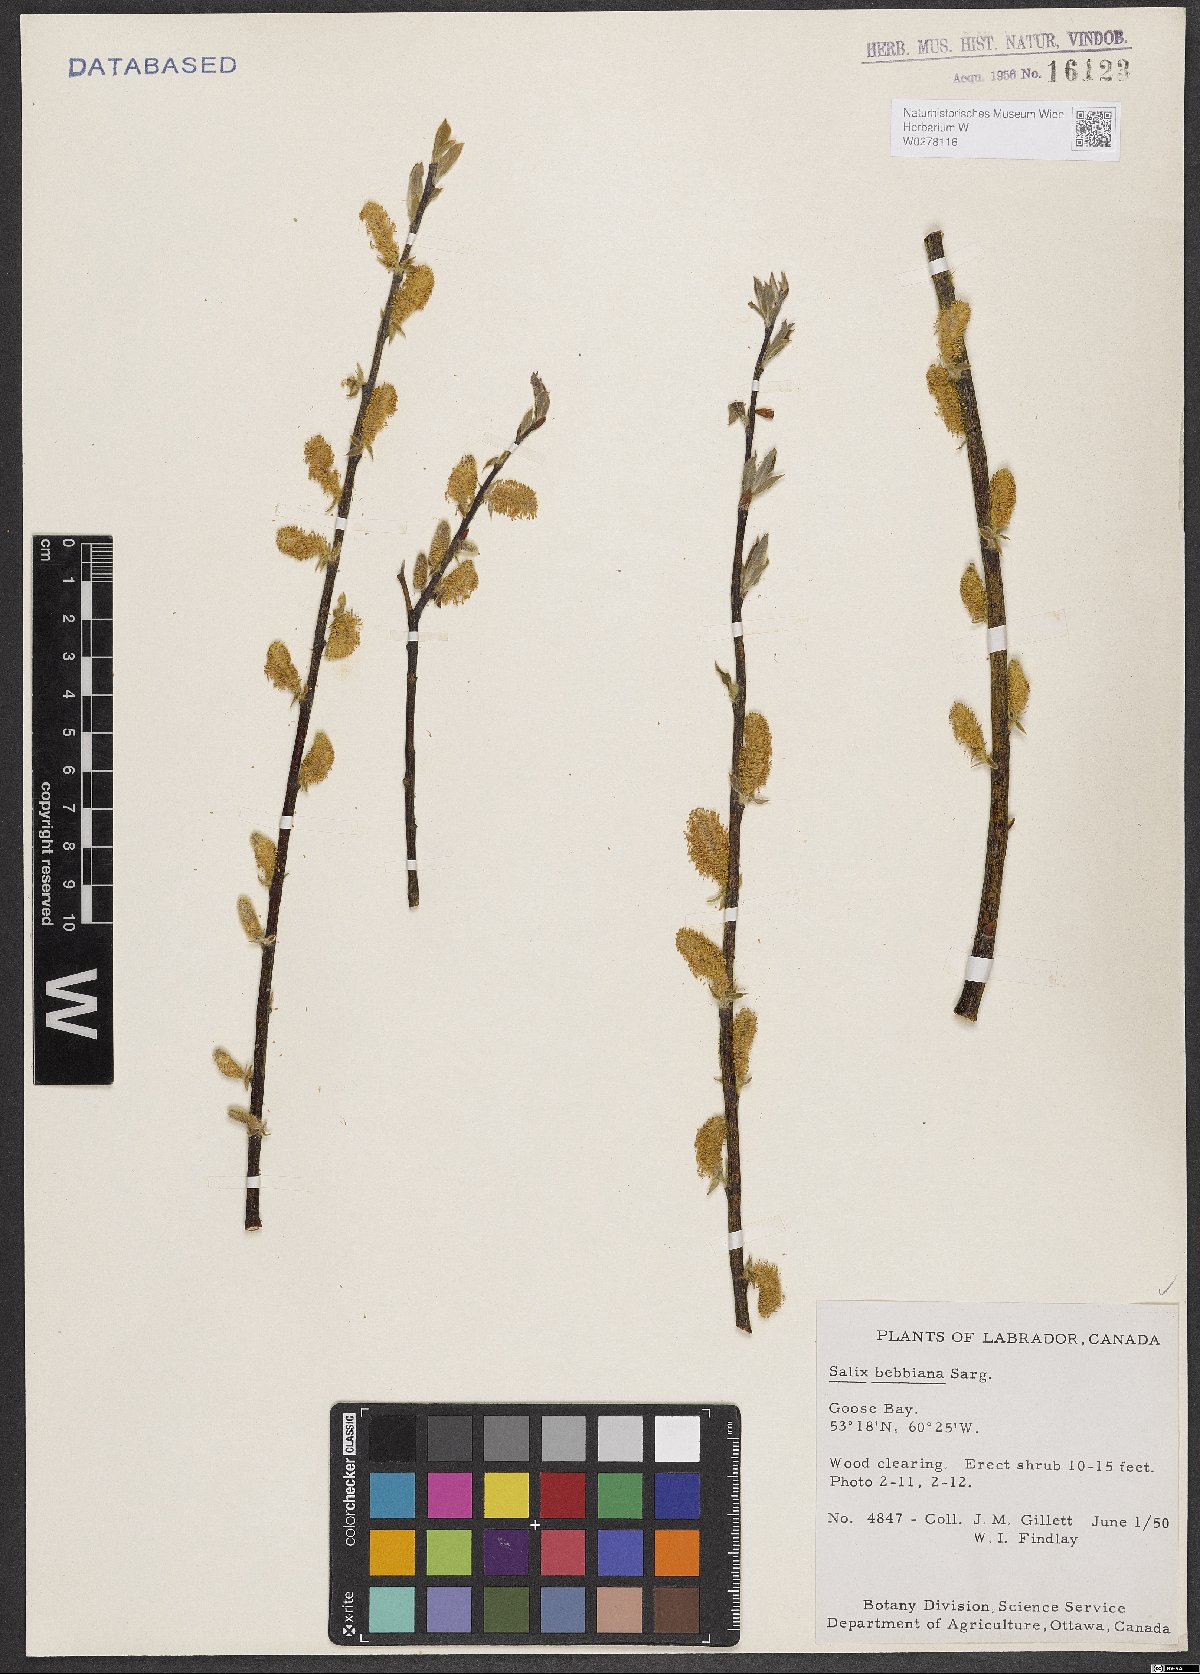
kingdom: Plantae
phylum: Tracheophyta
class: Magnoliopsida
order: Malpighiales
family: Salicaceae
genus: Salix
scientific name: Salix bebbiana
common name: Bebb's willow
